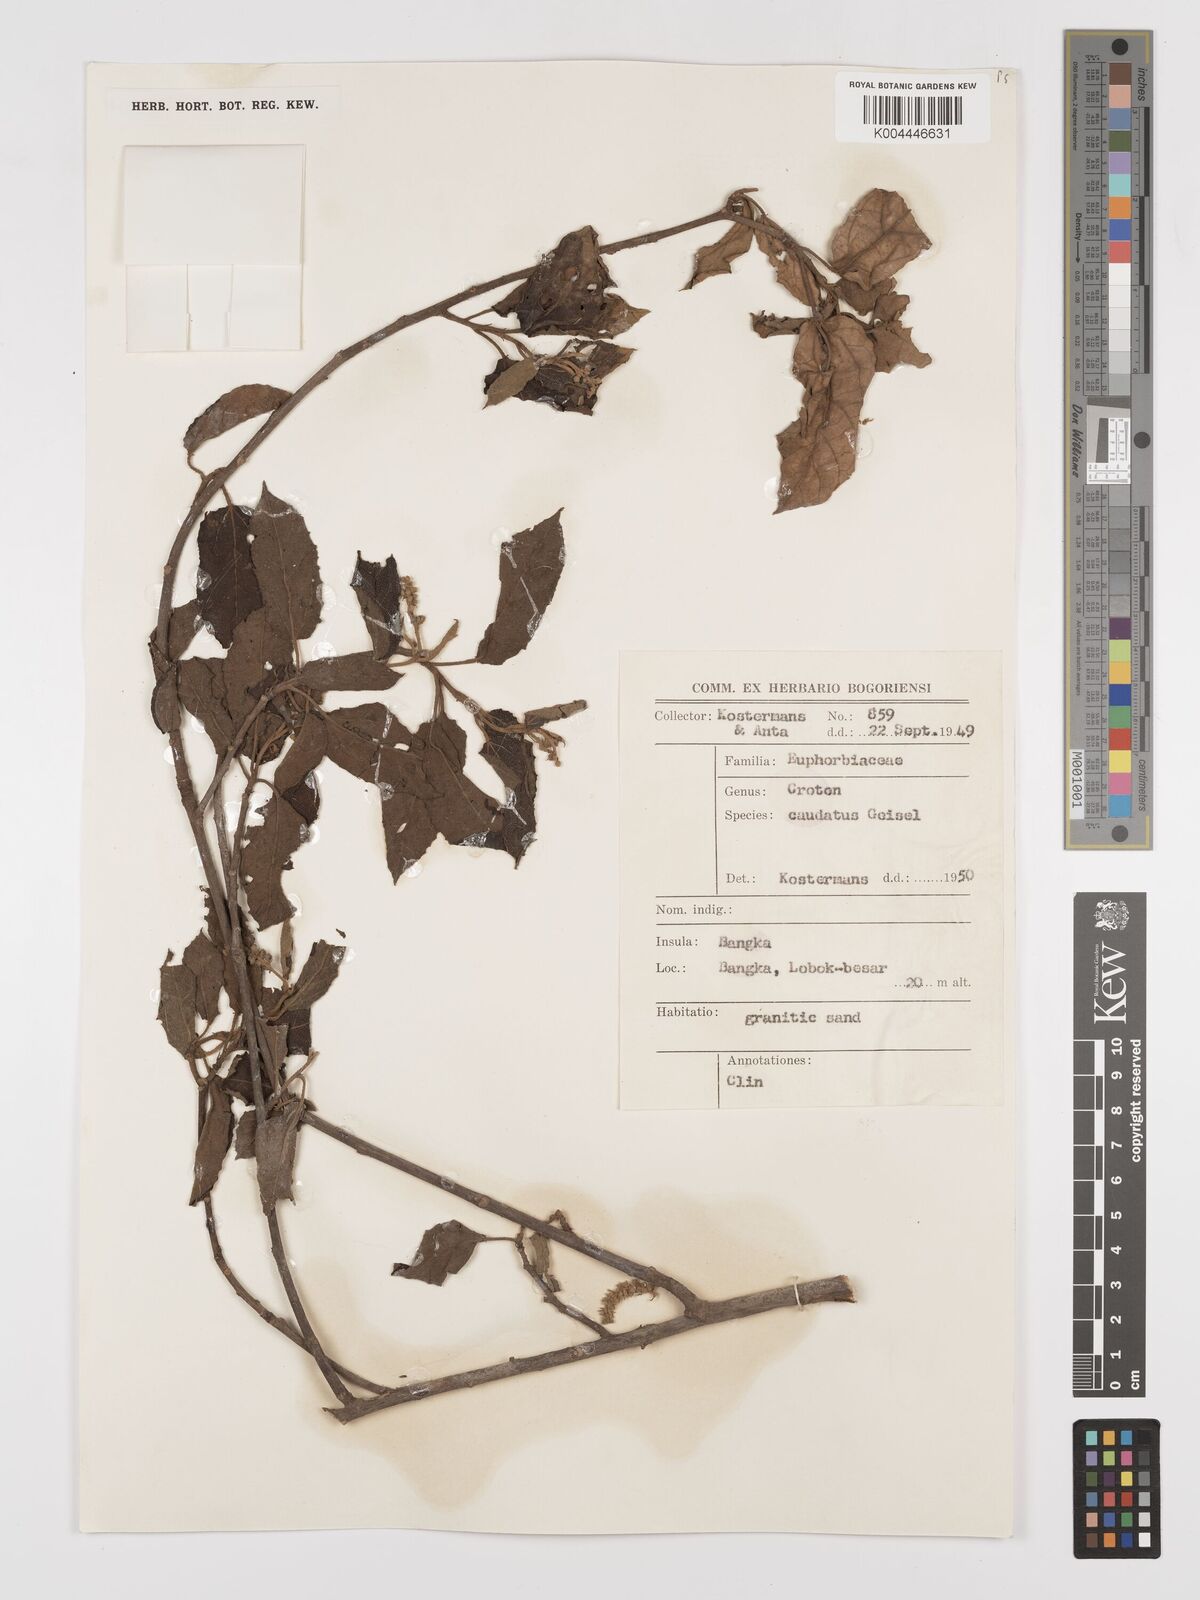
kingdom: Plantae
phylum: Tracheophyta
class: Magnoliopsida
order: Malpighiales
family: Euphorbiaceae
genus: Croton
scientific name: Croton caudatus
